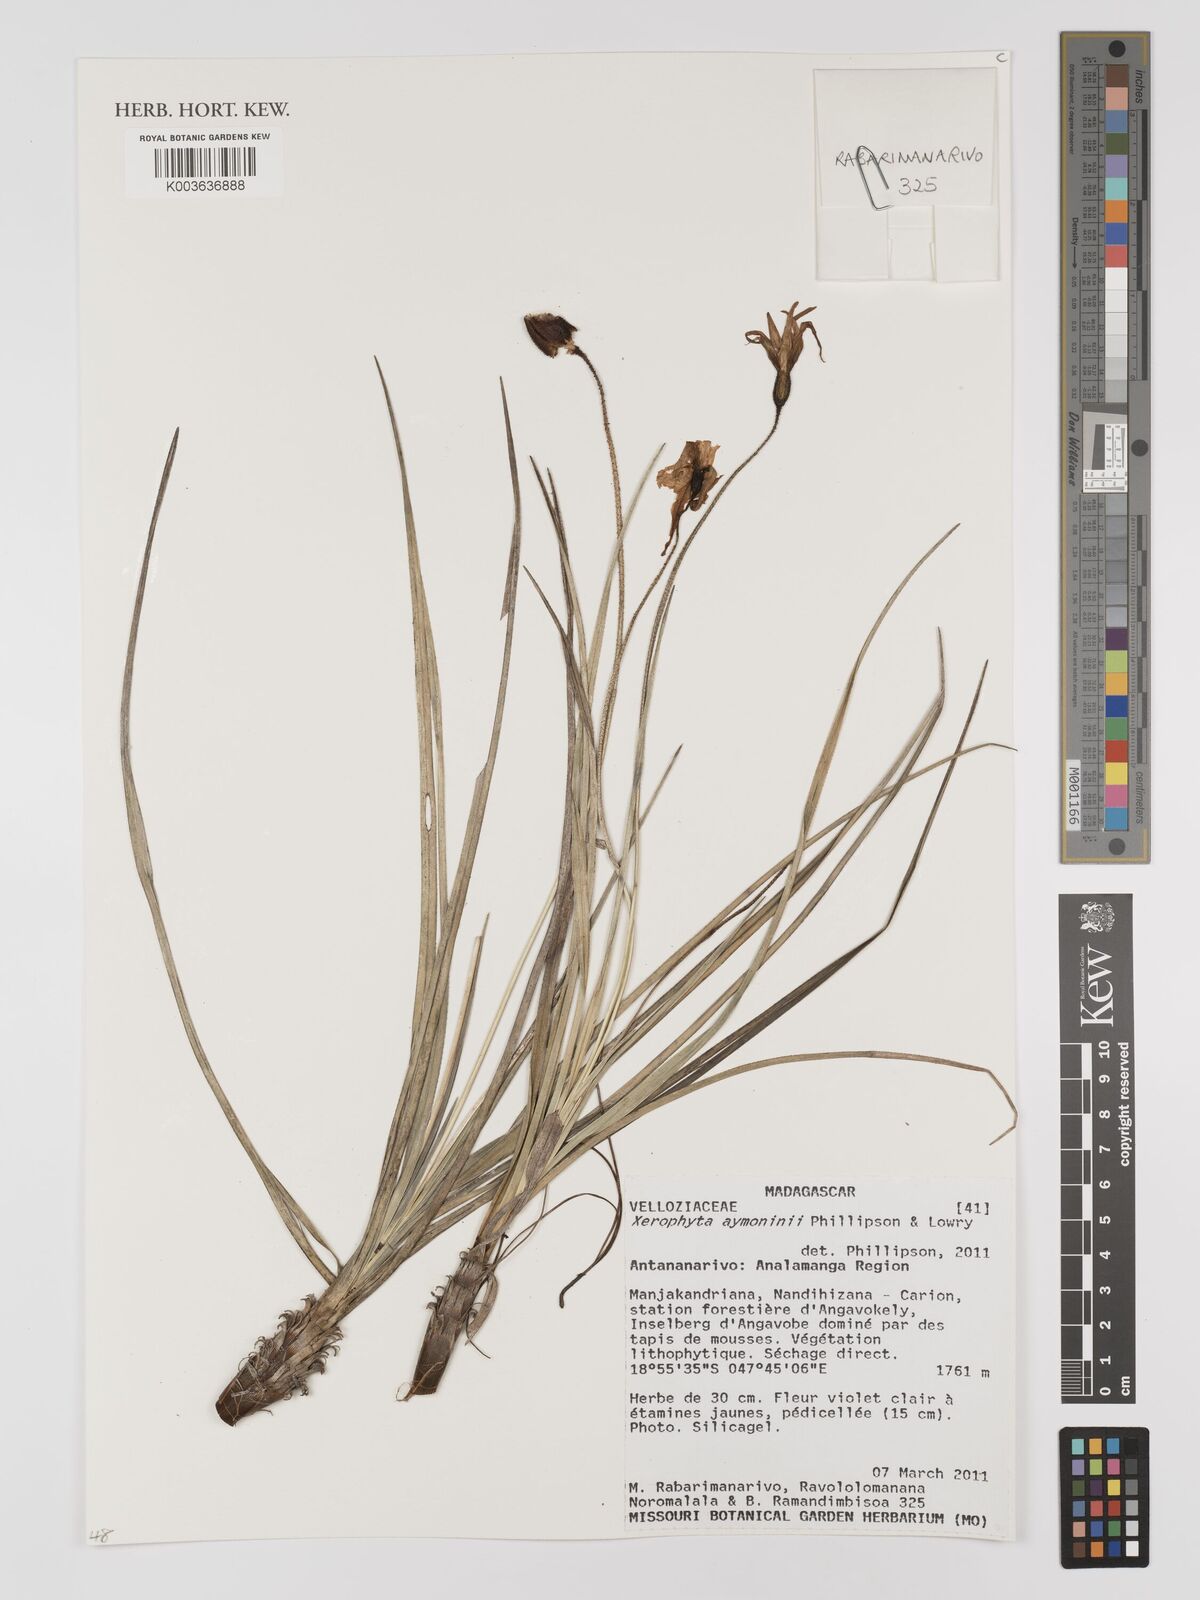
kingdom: Plantae
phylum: Tracheophyta
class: Liliopsida
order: Pandanales
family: Velloziaceae
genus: Xerophyta
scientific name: Xerophyta
